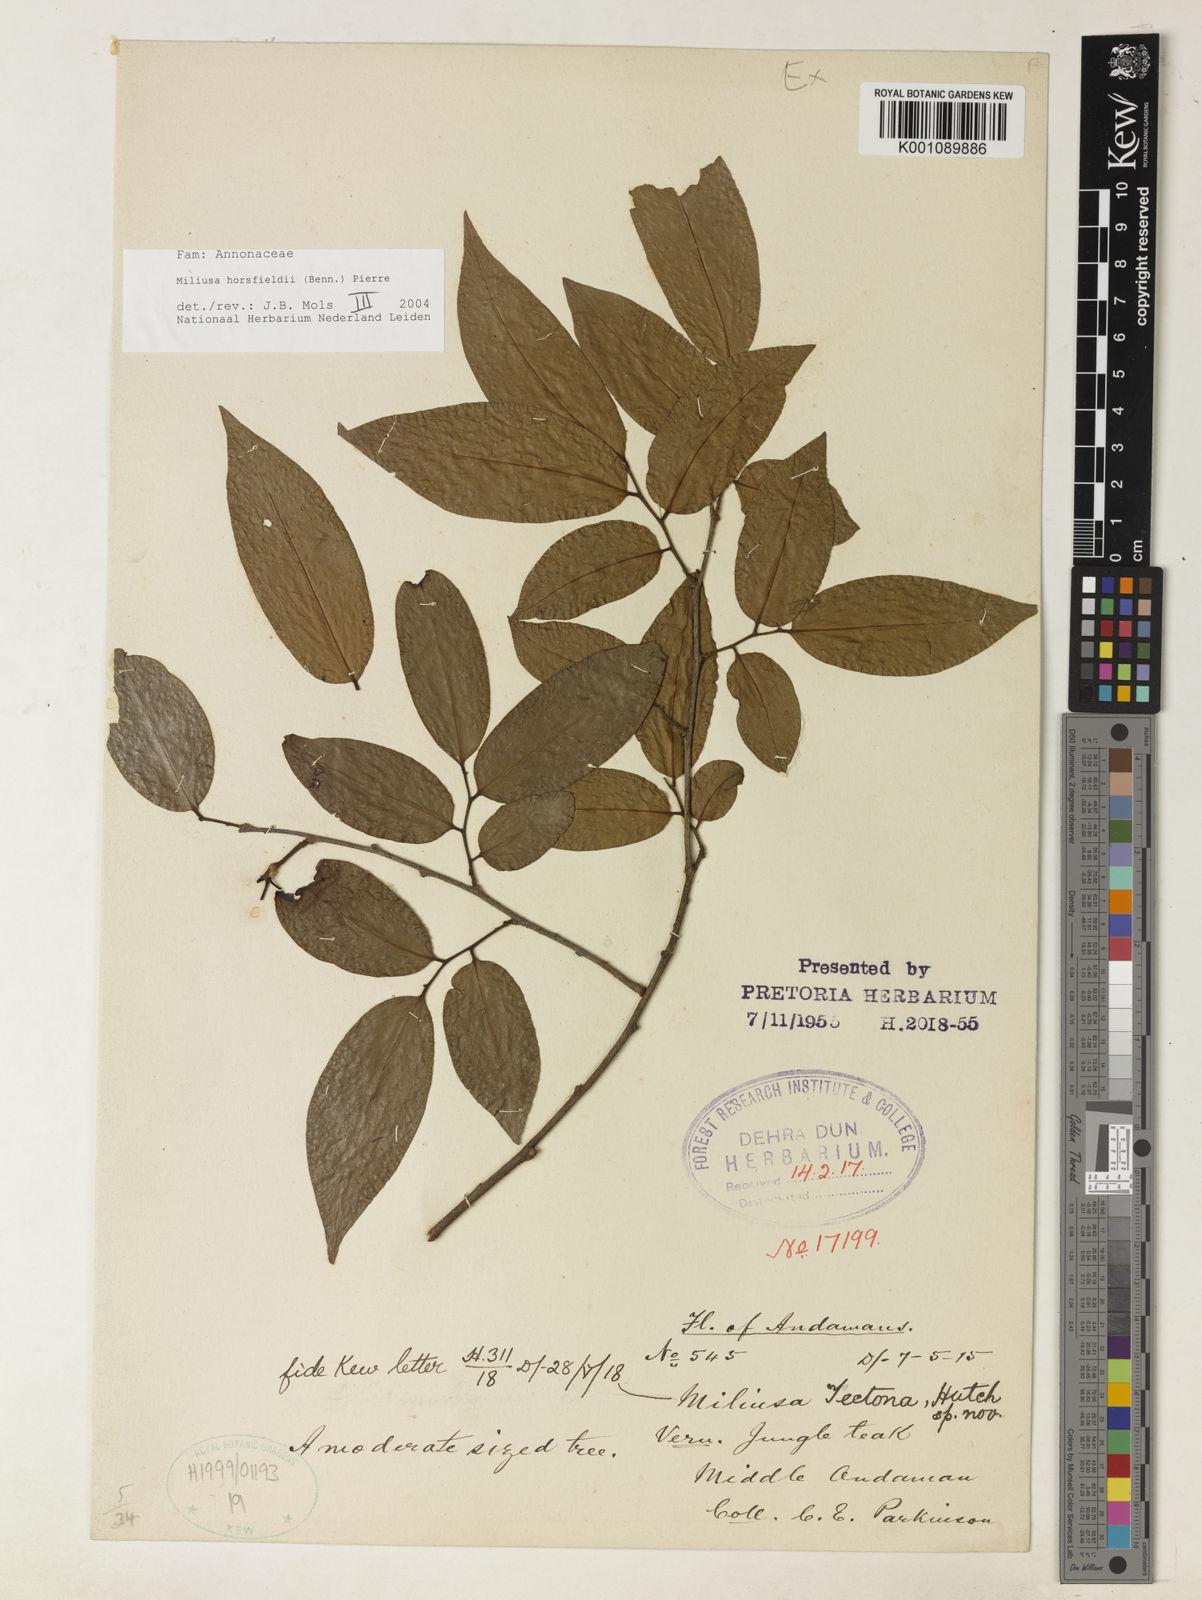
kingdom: Plantae
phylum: Tracheophyta
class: Magnoliopsida
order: Magnoliales
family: Annonaceae
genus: Miliusa
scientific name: Miliusa horsfieldii
